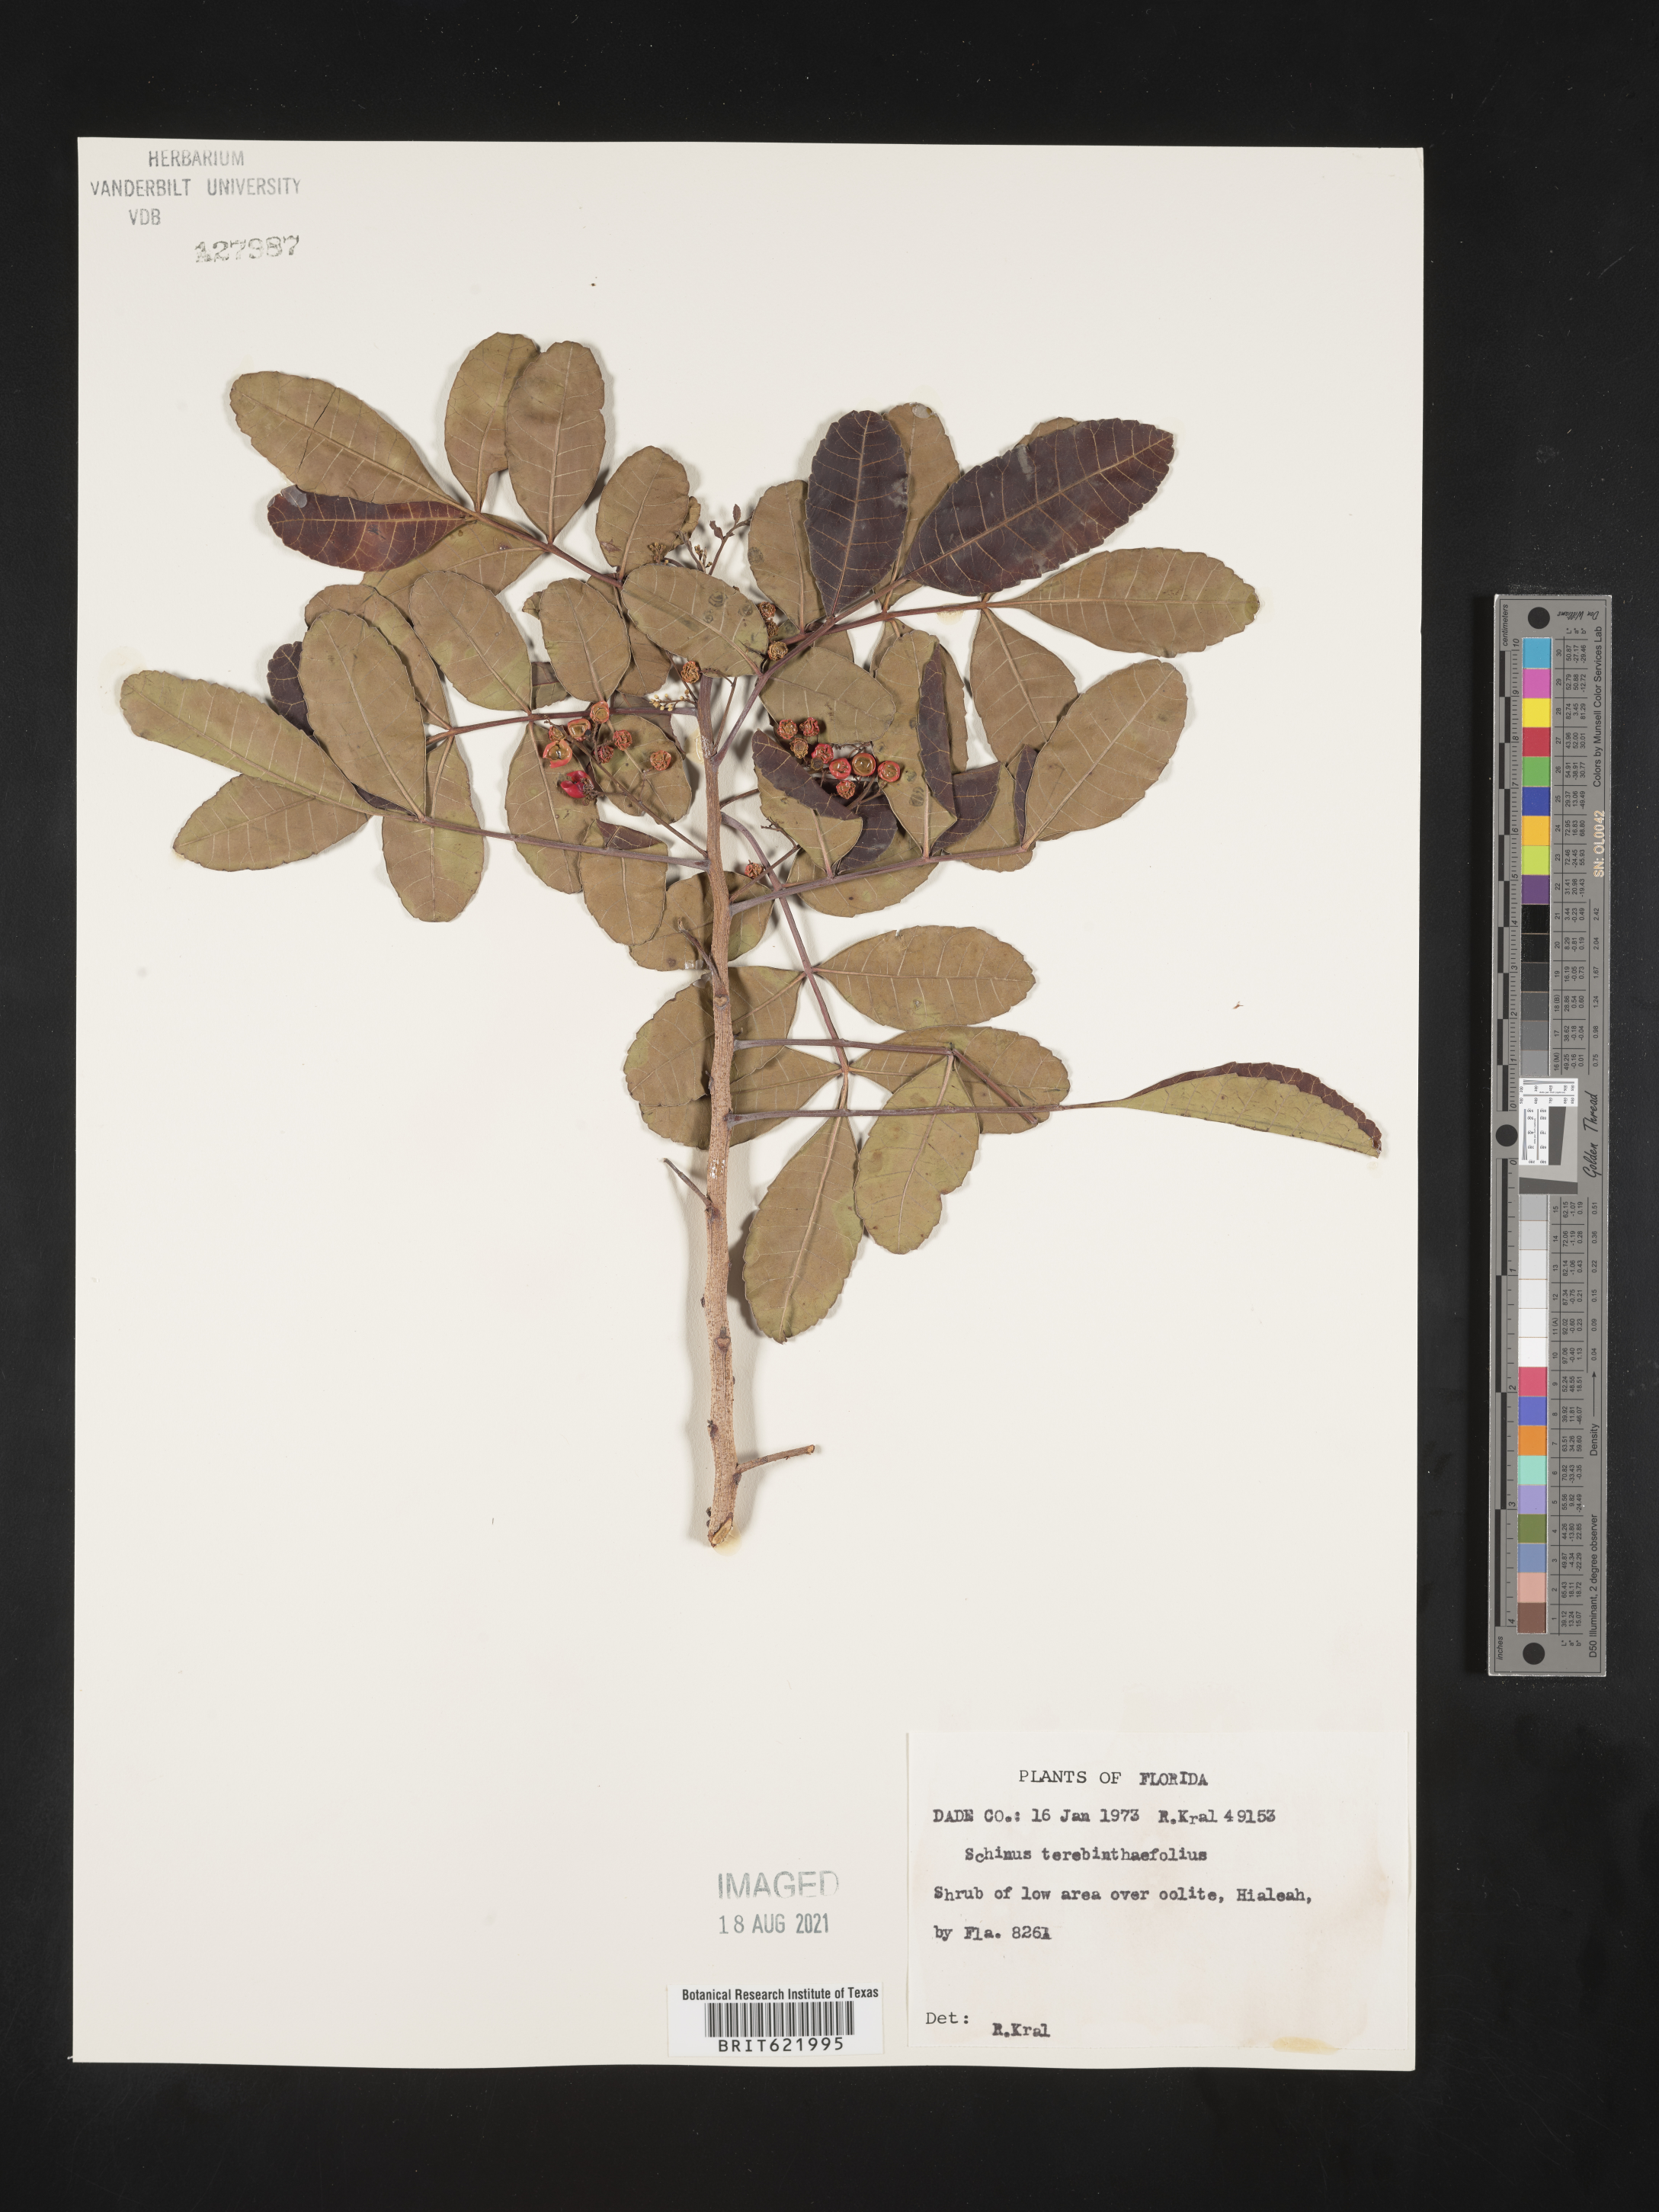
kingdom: Plantae
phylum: Tracheophyta
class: Magnoliopsida
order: Sapindales
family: Anacardiaceae
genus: Schinus
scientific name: Schinus terebinthifolia
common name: Brazilian peppertree
